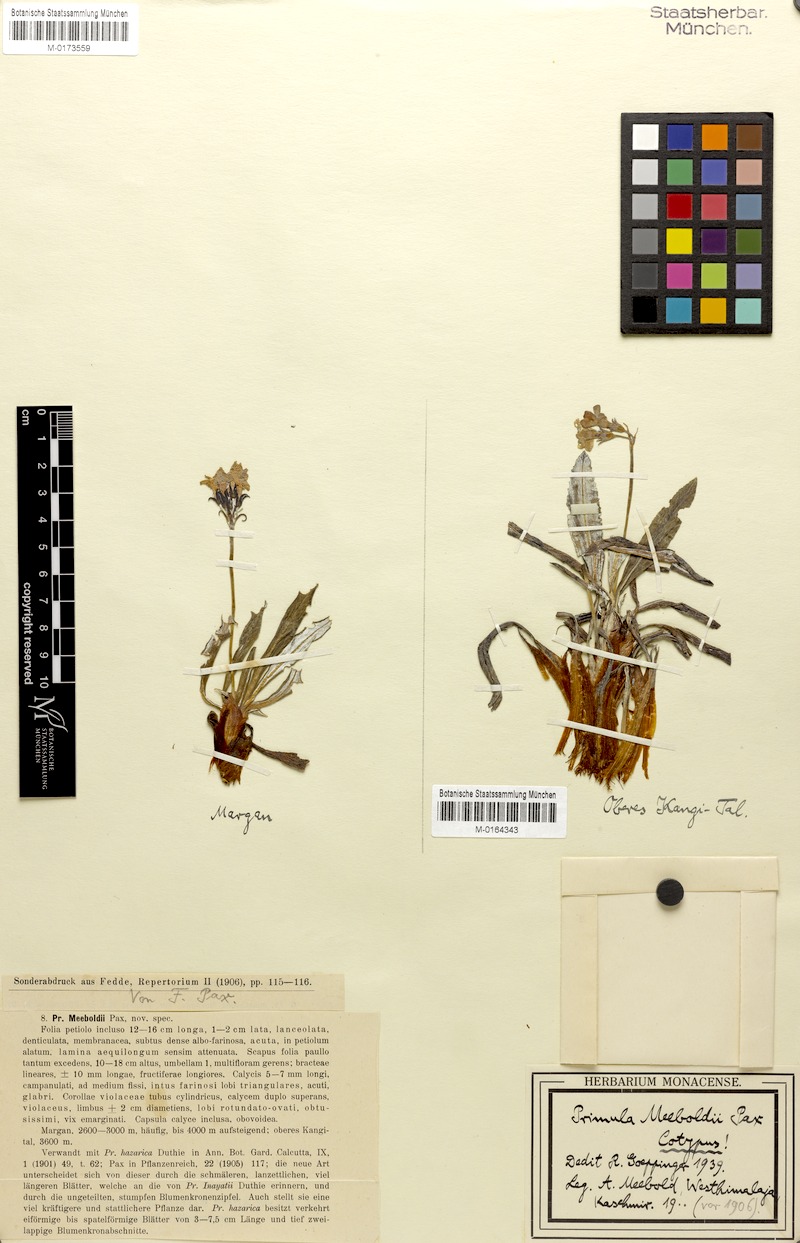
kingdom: Plantae
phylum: Tracheophyta
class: Magnoliopsida
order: Ericales
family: Primulaceae
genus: Primula
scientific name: Primula stuartii
